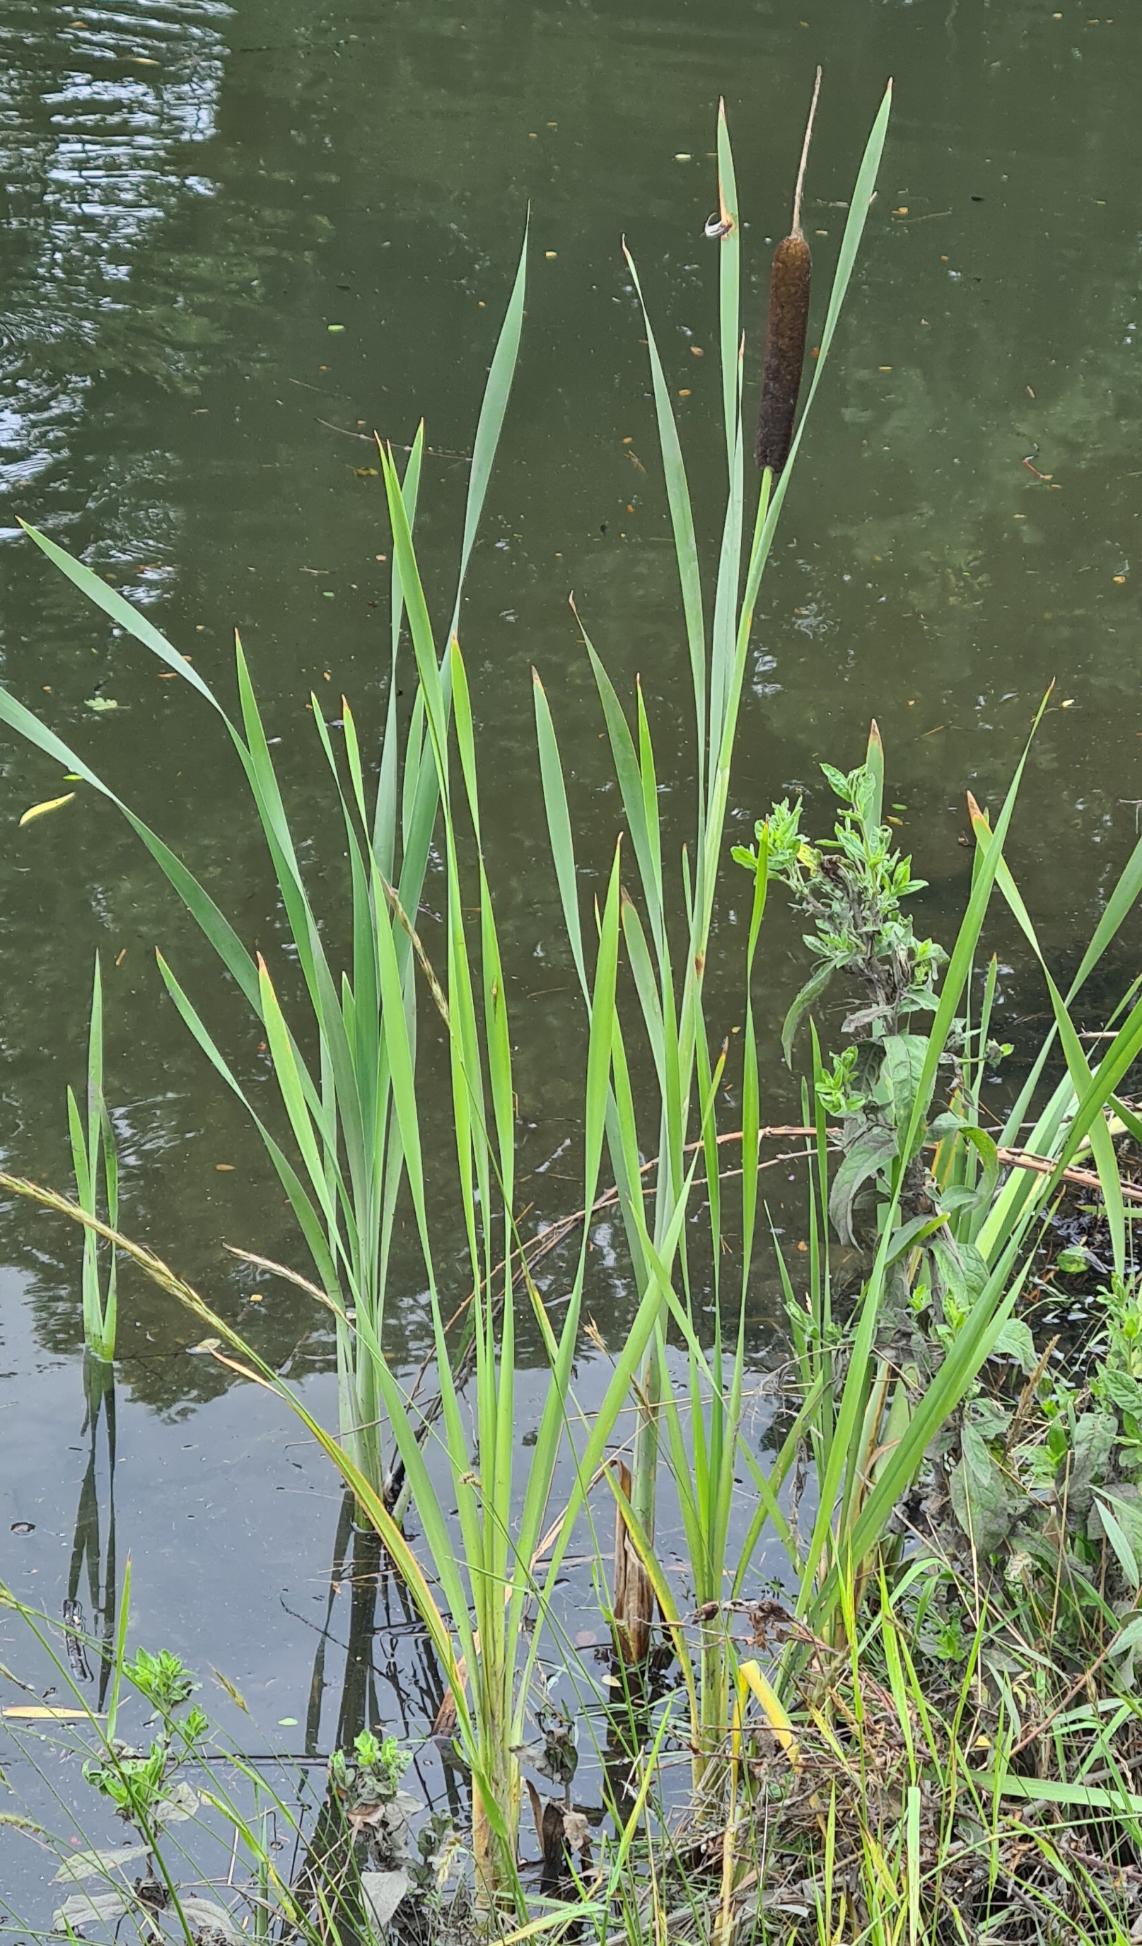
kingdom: Plantae
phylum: Tracheophyta
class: Liliopsida
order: Poales
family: Typhaceae
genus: Typha
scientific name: Typha latifolia
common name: Bredbladet dunhammer
